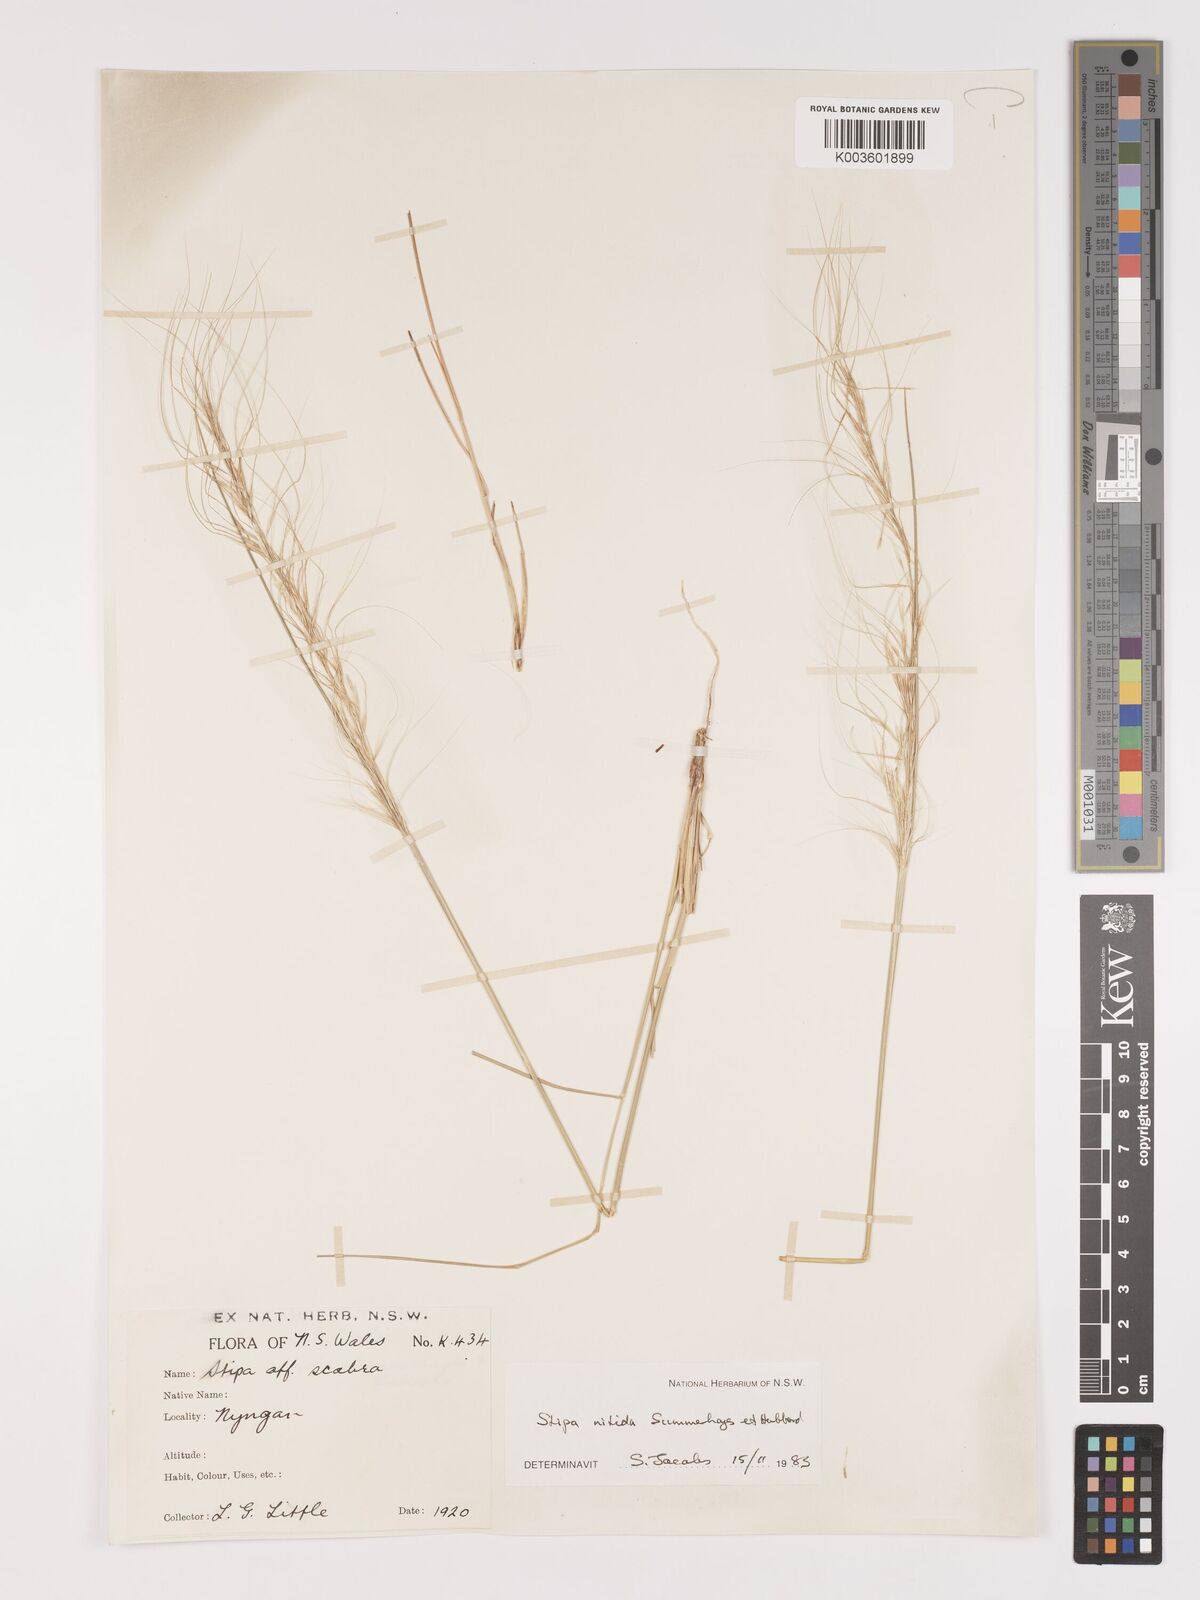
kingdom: Plantae
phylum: Tracheophyta
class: Liliopsida
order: Poales
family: Poaceae
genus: Austrostipa
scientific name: Austrostipa nitida
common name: Balcarra grass
